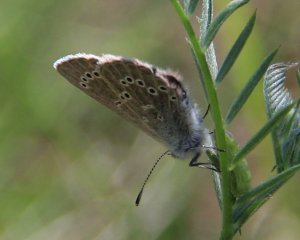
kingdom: Animalia
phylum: Arthropoda
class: Insecta
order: Lepidoptera
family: Lycaenidae
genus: Glaucopsyche
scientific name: Glaucopsyche lygdamus
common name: Silvery Blue
